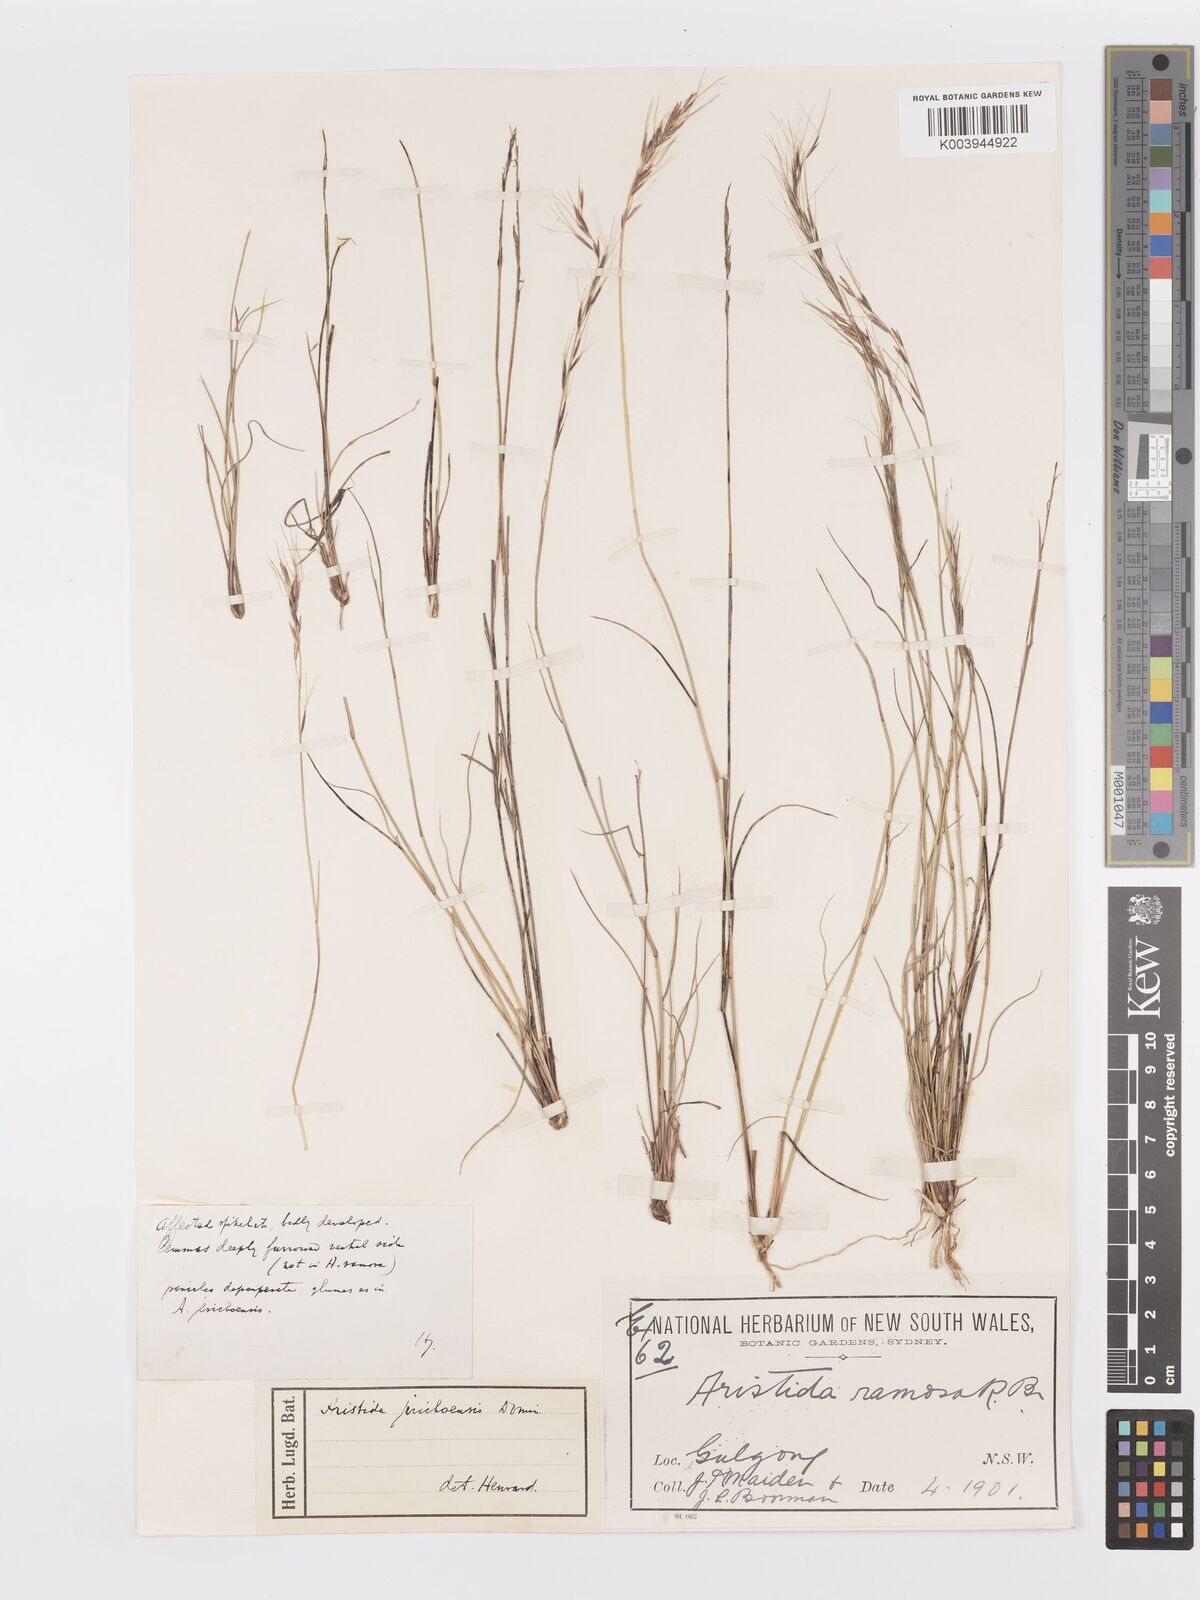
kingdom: Plantae
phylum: Tracheophyta
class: Liliopsida
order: Poales
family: Poaceae
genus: Aristida
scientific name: Aristida jerichoensis
